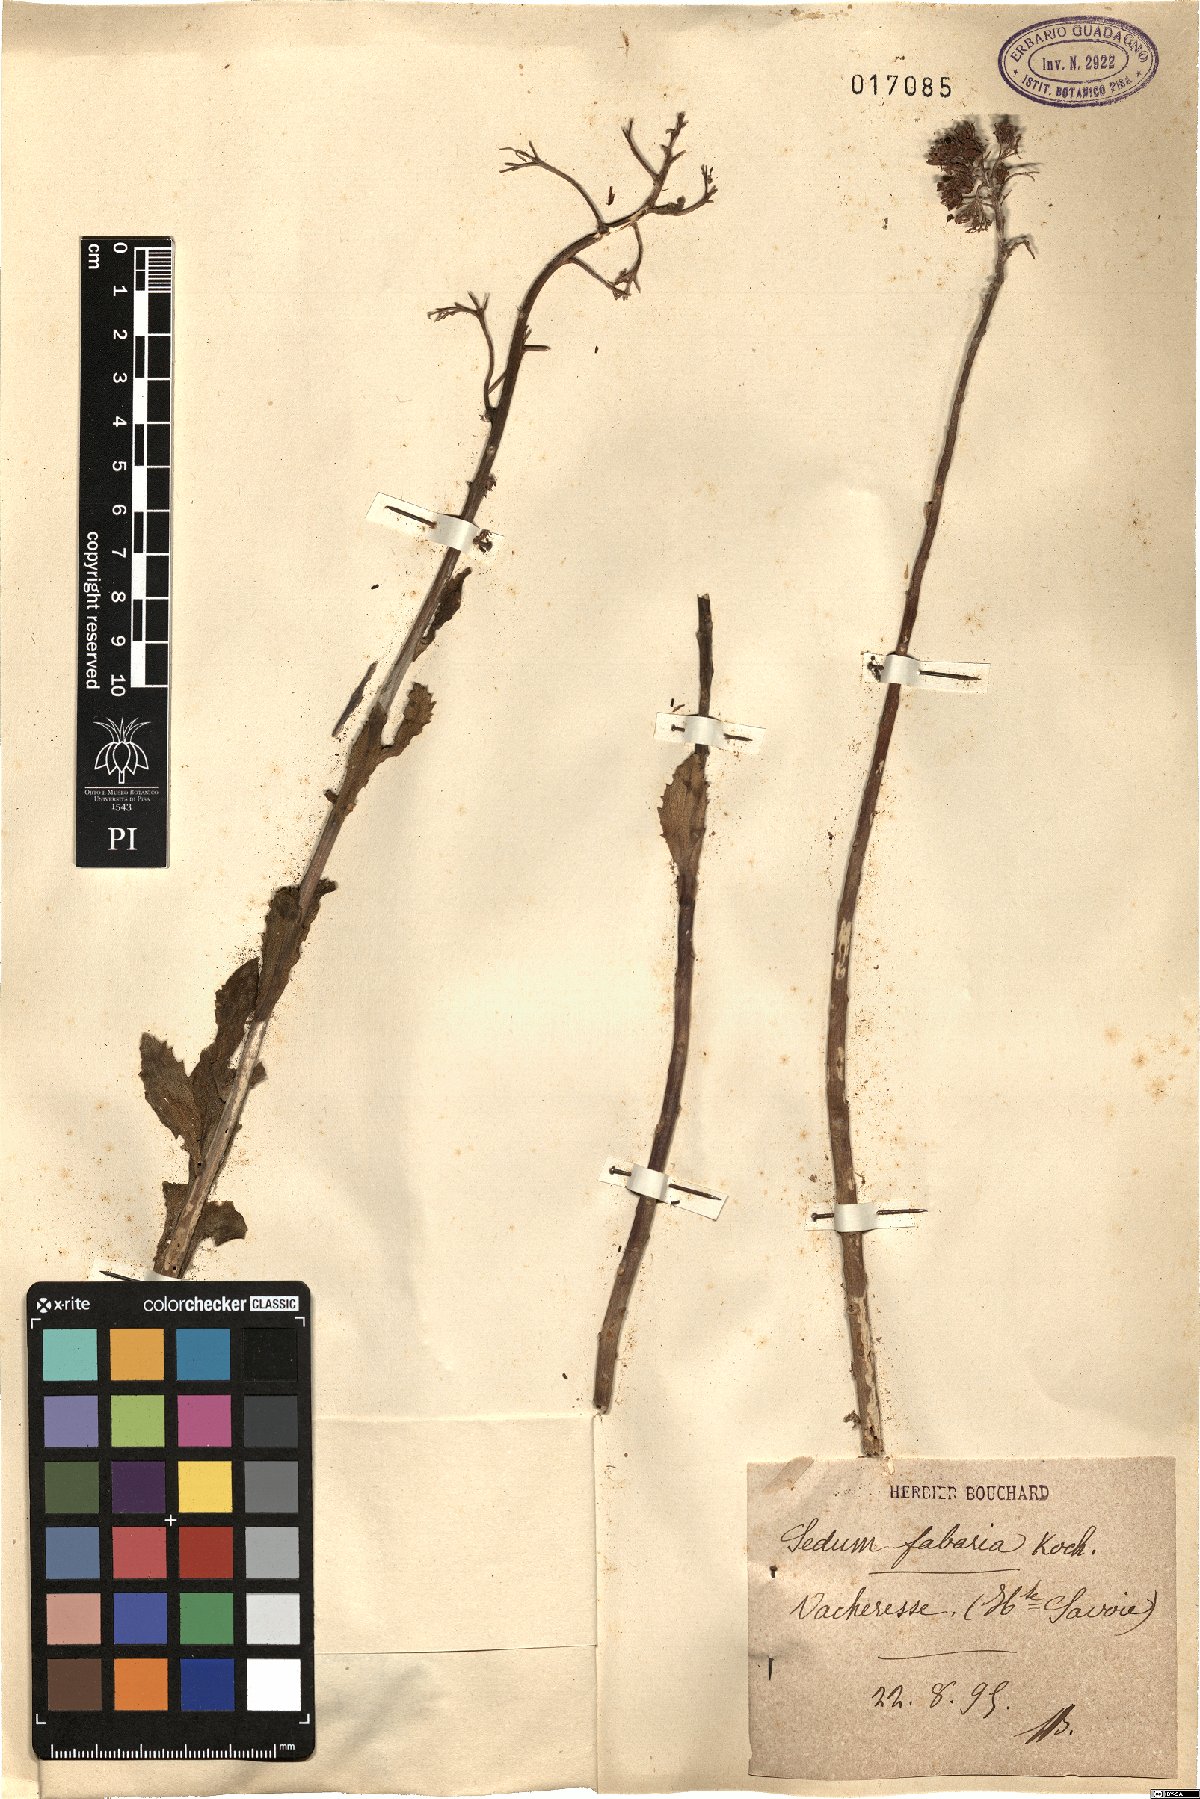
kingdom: Plantae
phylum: Tracheophyta
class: Magnoliopsida
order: Saxifragales
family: Crassulaceae
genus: Hylotelephium
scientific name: Hylotelephium vulgare
